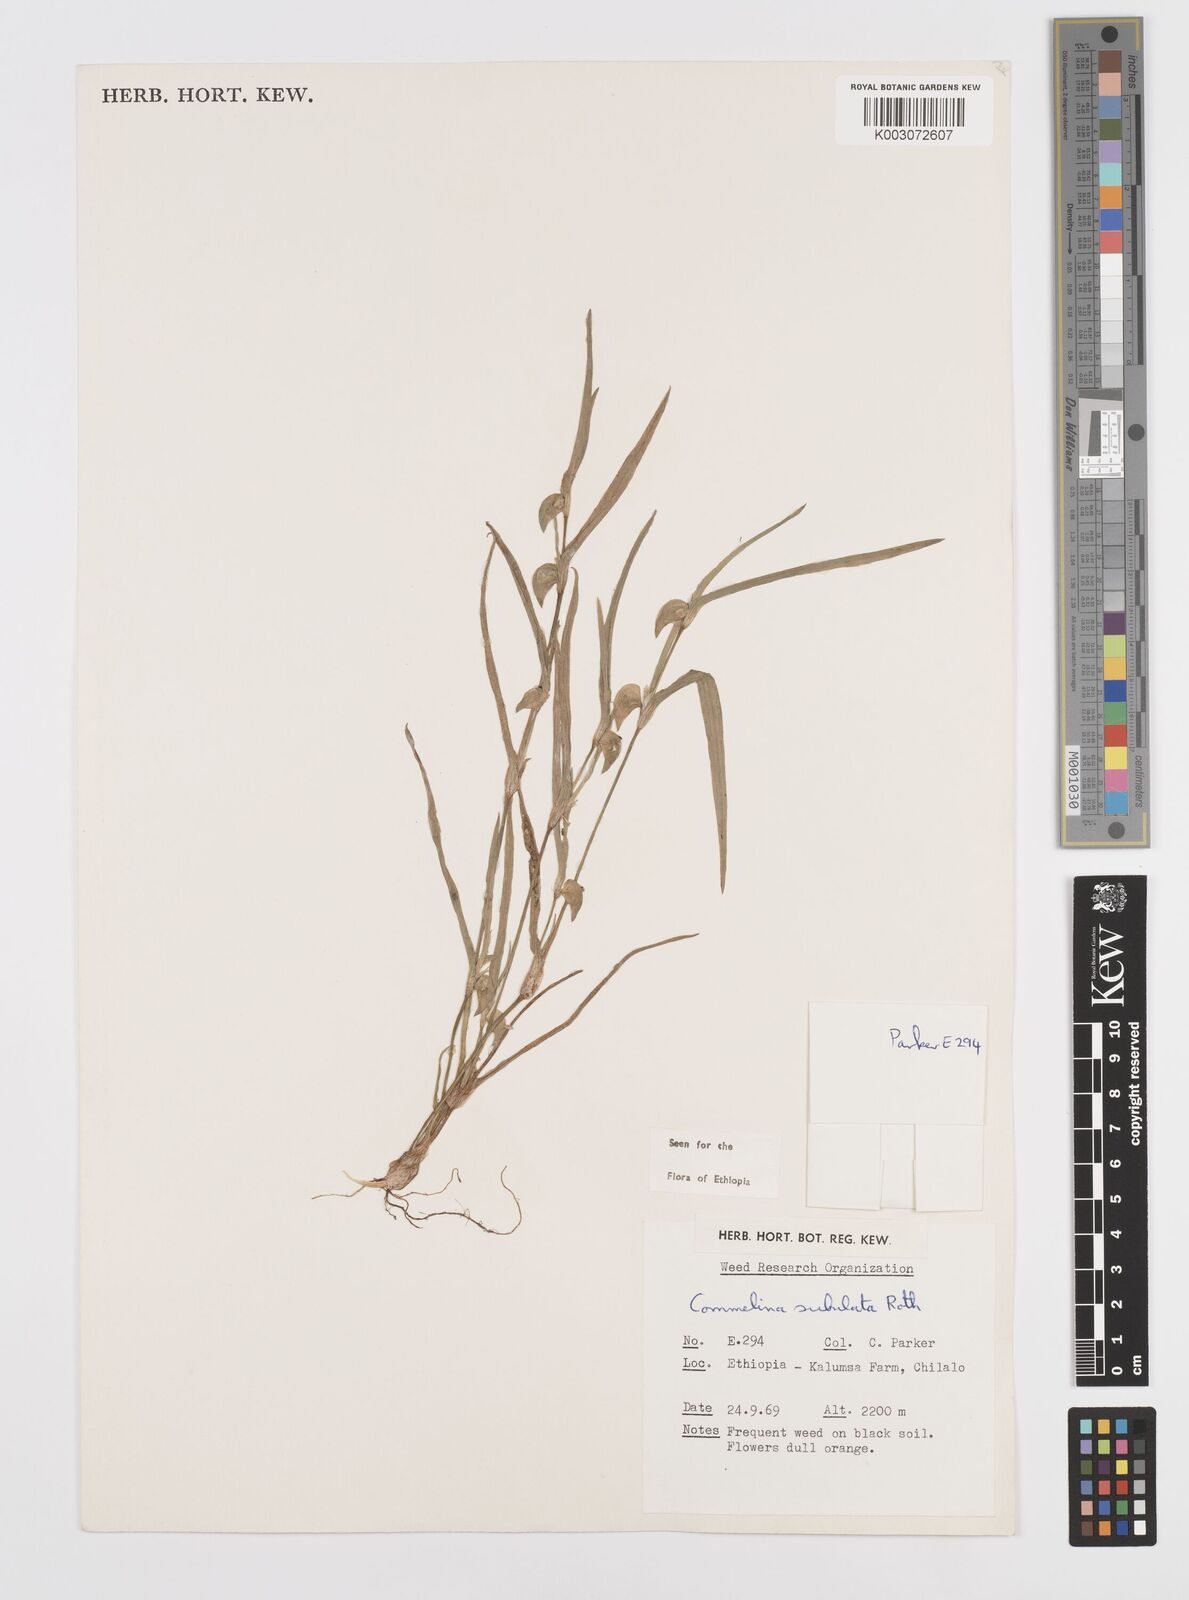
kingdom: Plantae
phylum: Tracheophyta
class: Liliopsida
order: Commelinales
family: Commelinaceae
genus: Commelina
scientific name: Commelina subulata
